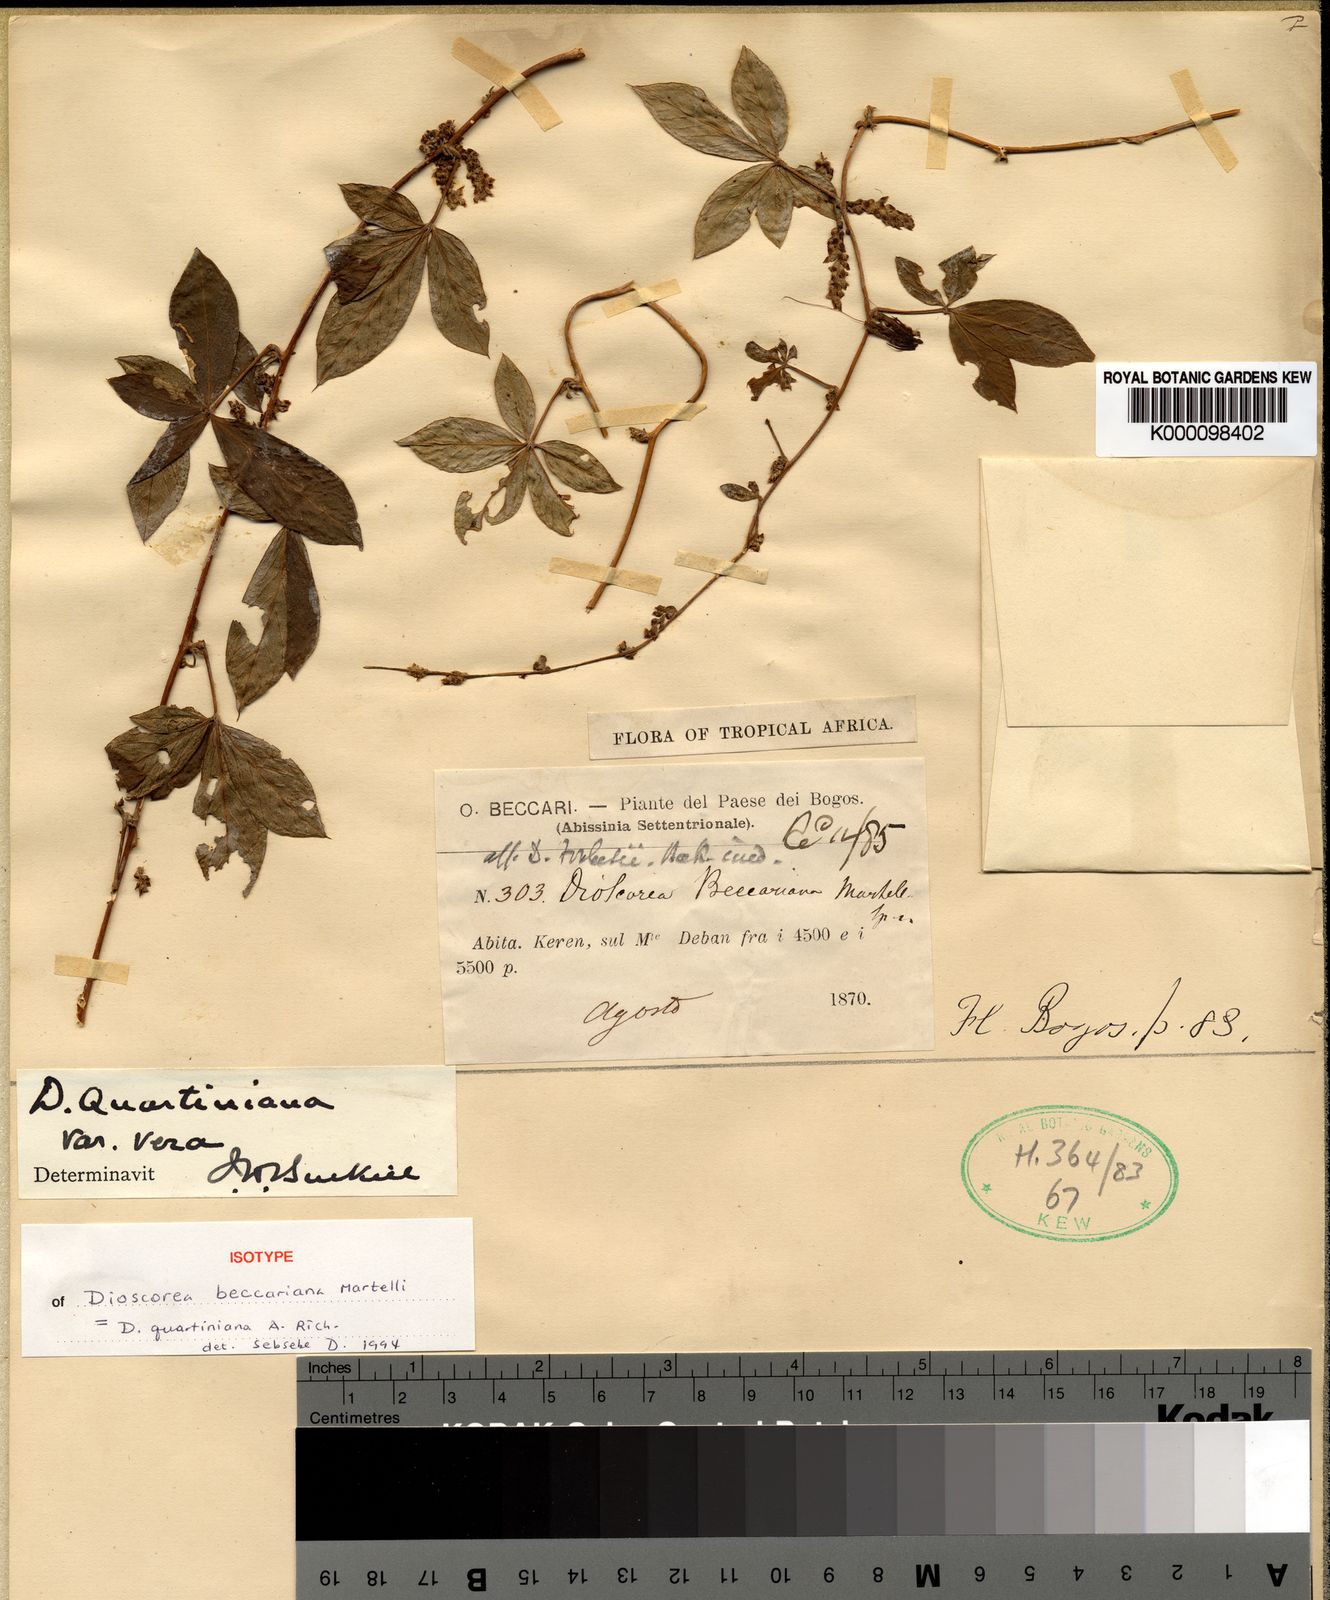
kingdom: Plantae
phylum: Tracheophyta
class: Liliopsida
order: Dioscoreales
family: Dioscoreaceae
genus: Dioscorea
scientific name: Dioscorea quartiniana
